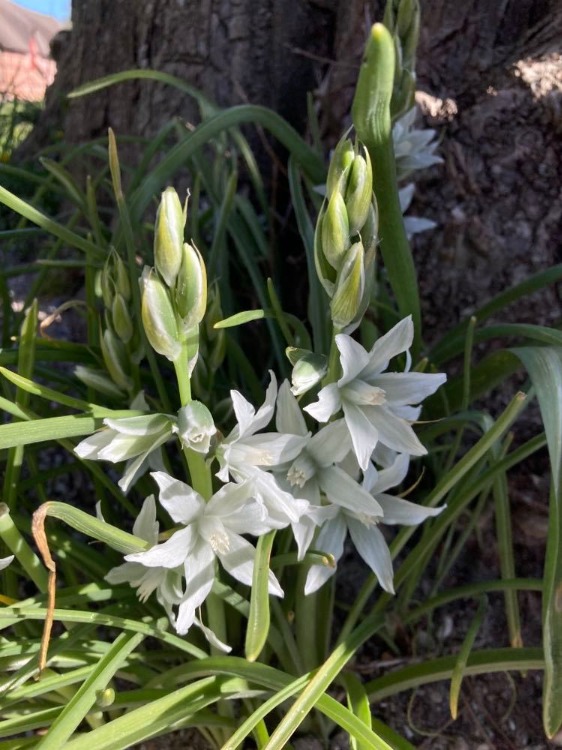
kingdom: Plantae
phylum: Tracheophyta
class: Liliopsida
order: Asparagales
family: Asparagaceae
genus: Ornithogalum
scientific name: Ornithogalum nutans
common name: Nikkende fuglemælk
